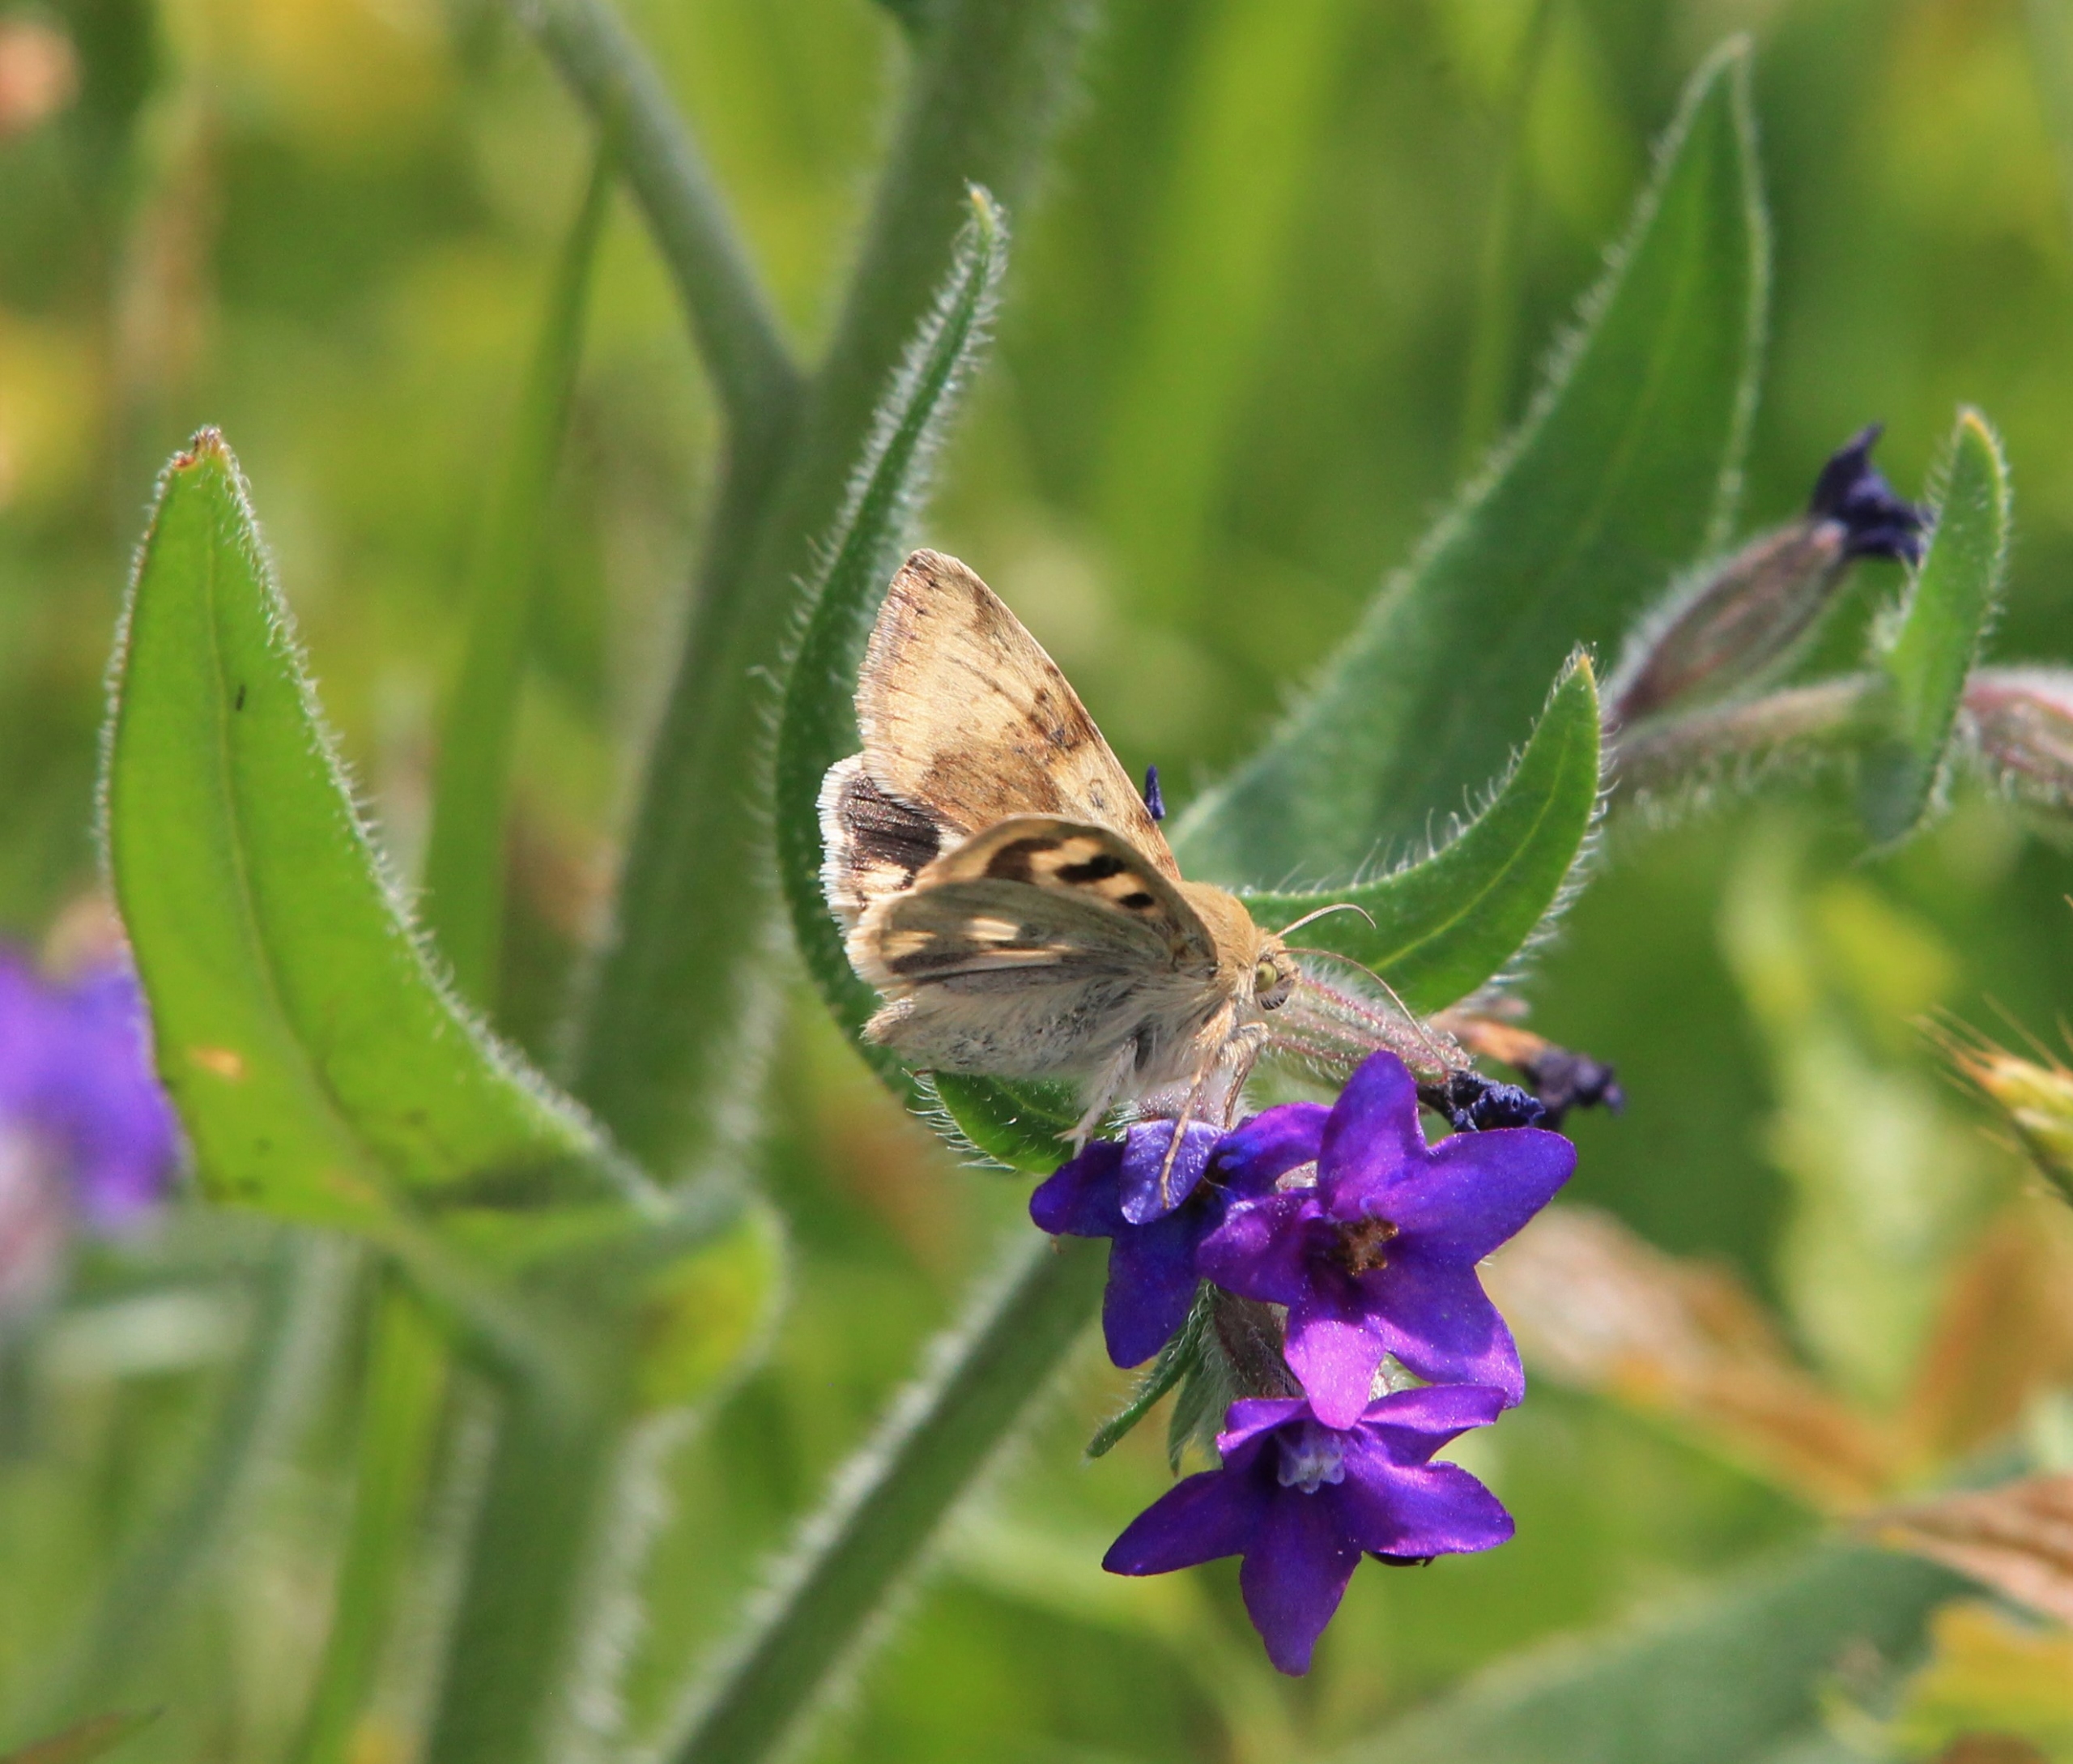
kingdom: Animalia
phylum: Arthropoda
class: Insecta
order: Lepidoptera
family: Noctuidae
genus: Heliothis
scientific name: Heliothis viriplaca
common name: Cikorieugle
